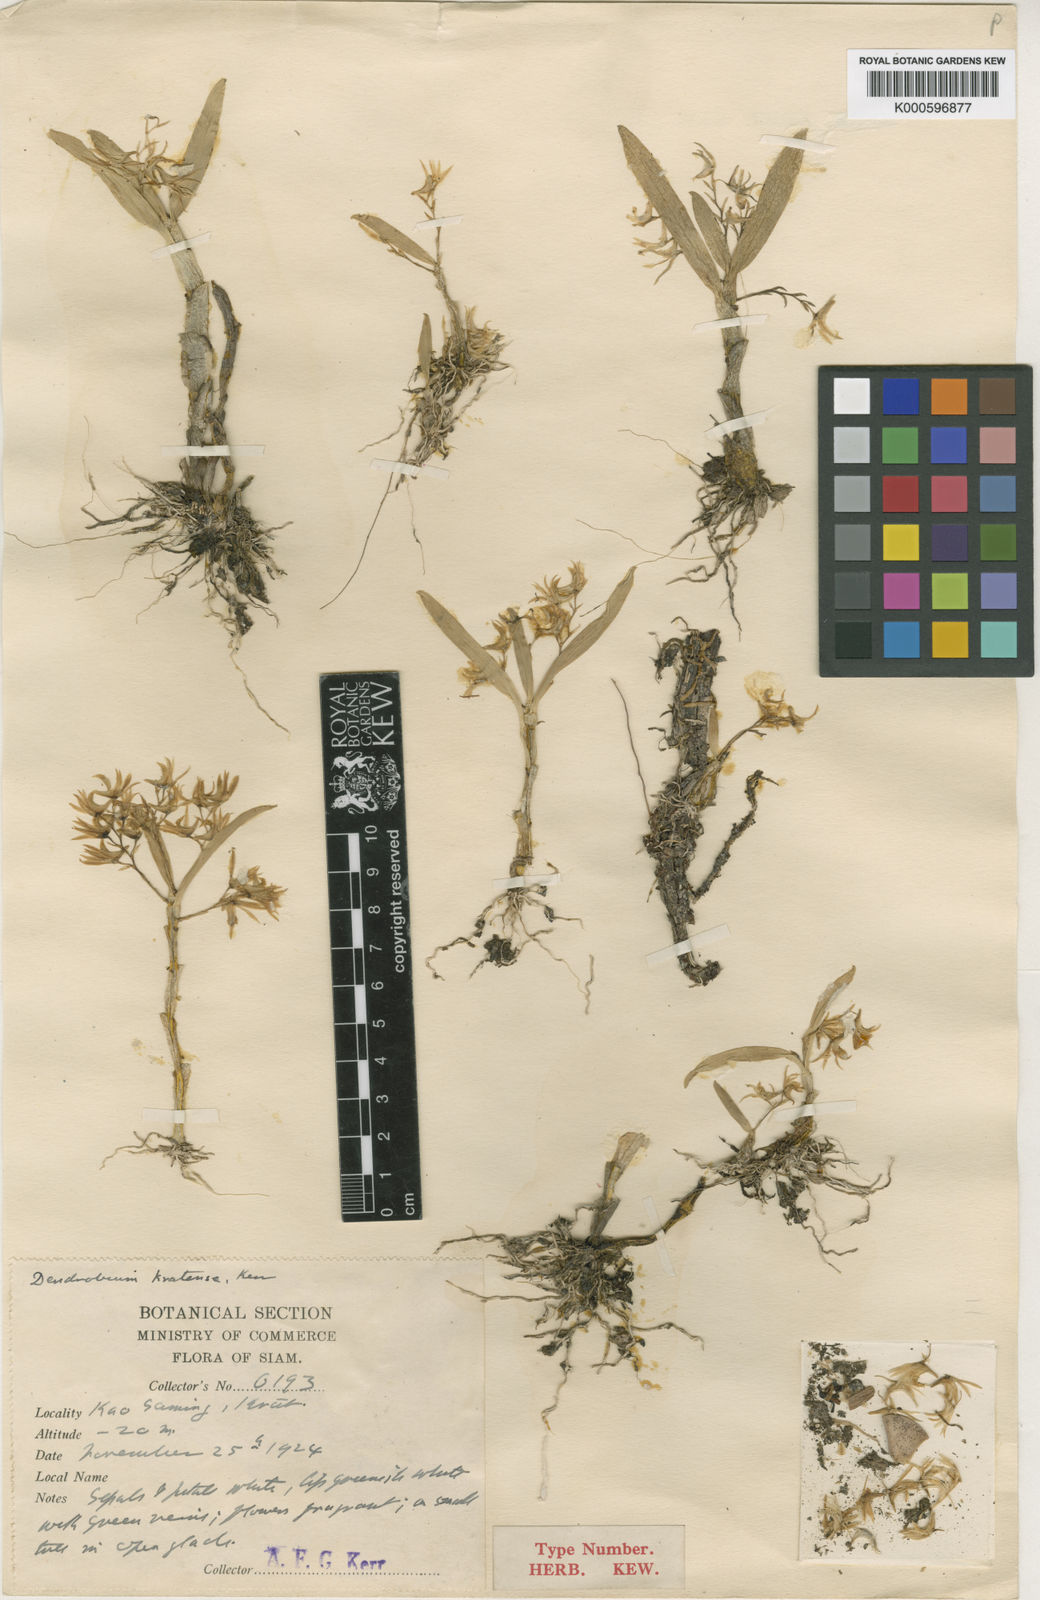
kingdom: Plantae
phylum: Tracheophyta
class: Liliopsida
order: Asparagales
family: Orchidaceae
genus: Dendrobium
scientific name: Dendrobium kratense
